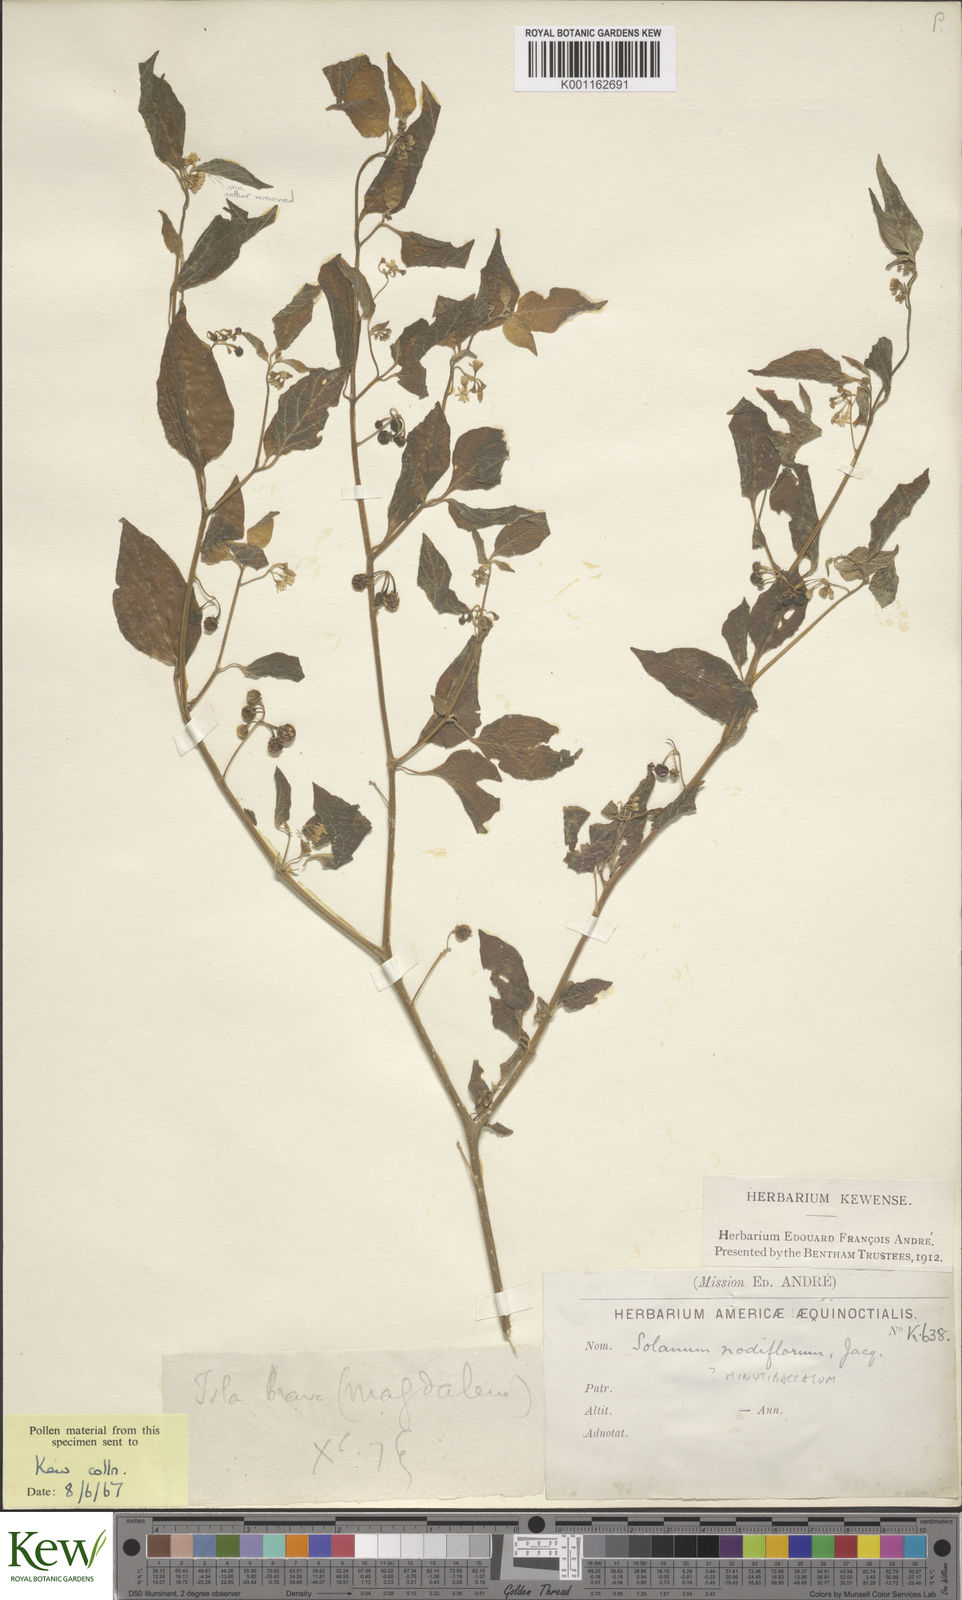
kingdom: Plantae
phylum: Tracheophyta
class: Magnoliopsida
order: Solanales
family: Solanaceae
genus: Solanum
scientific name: Solanum nigrescens
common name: Divine nightshade
